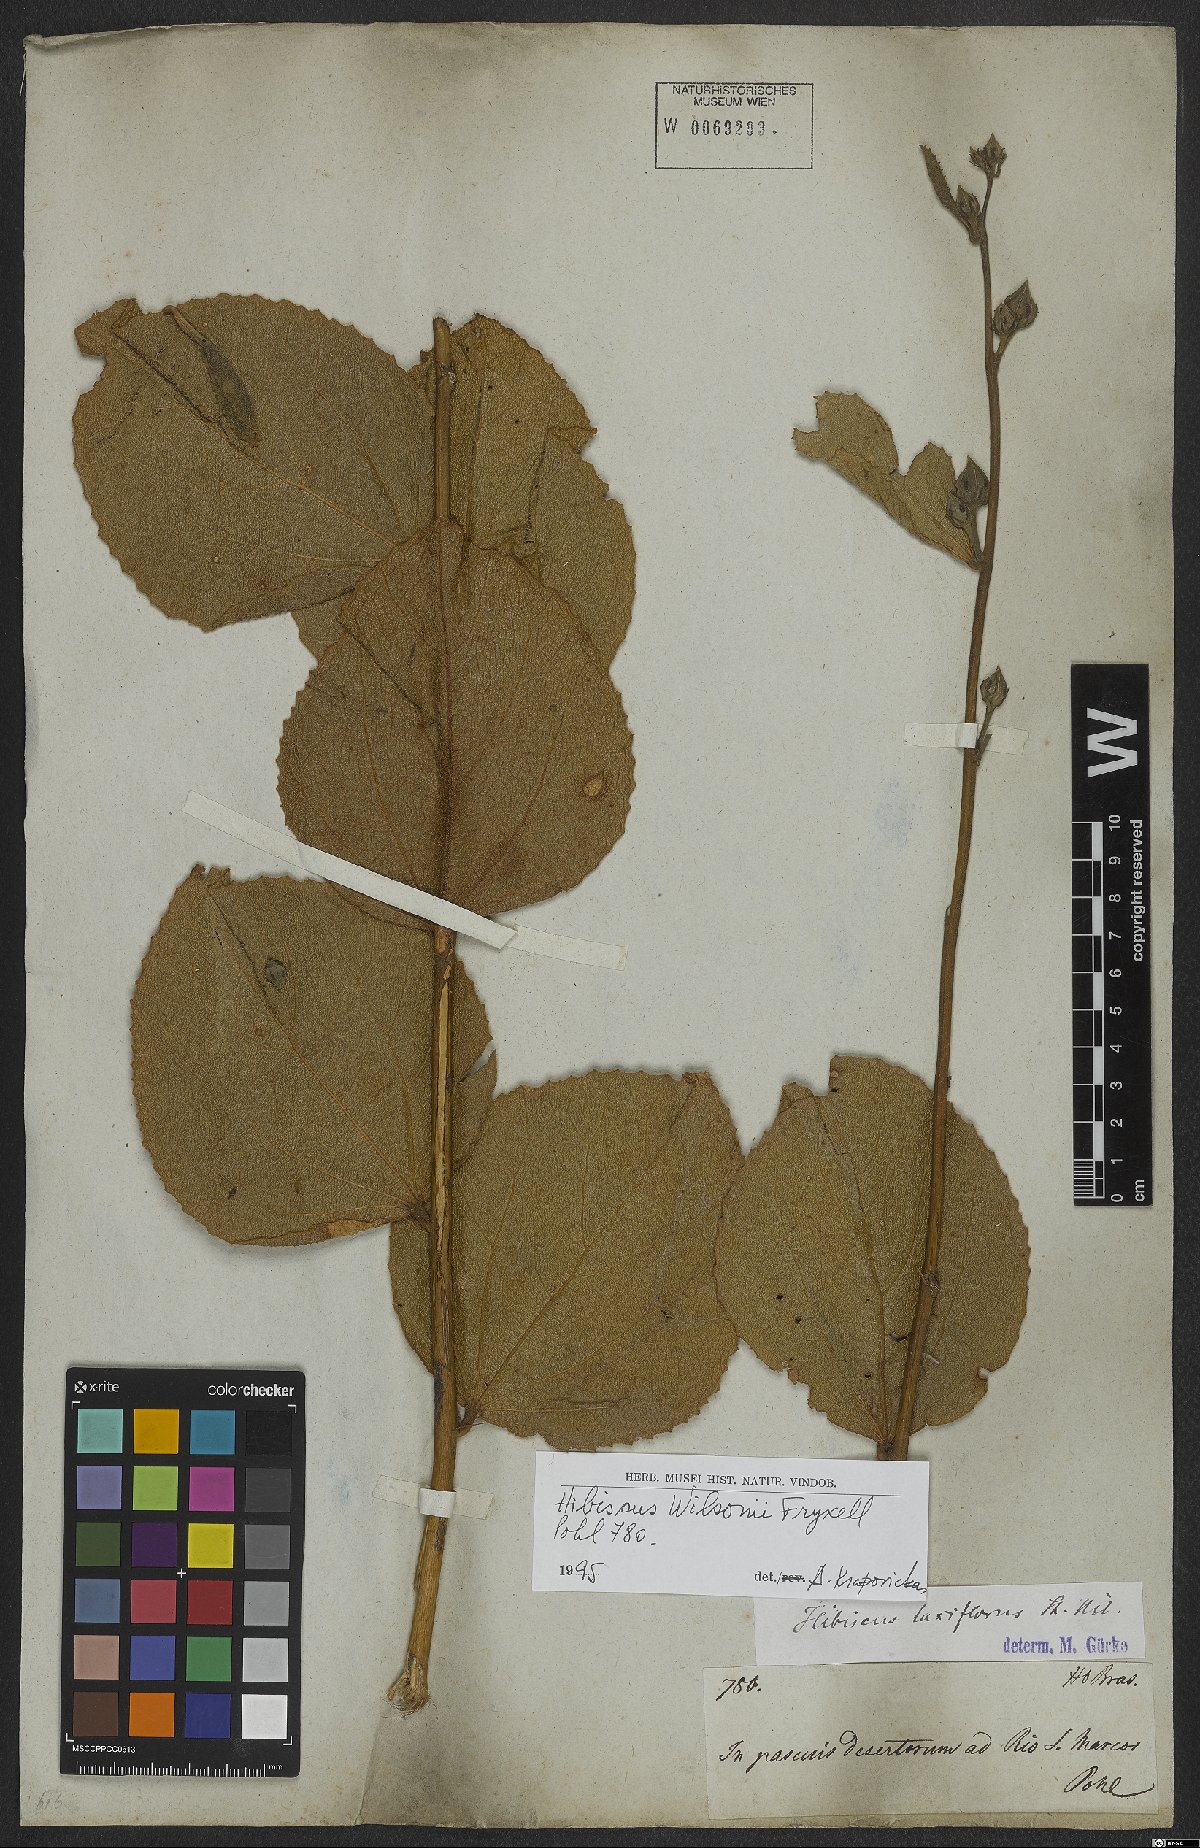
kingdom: Plantae
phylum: Tracheophyta
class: Magnoliopsida
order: Malvales
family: Malvaceae
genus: Hibiscus
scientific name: Hibiscus wilsonii
